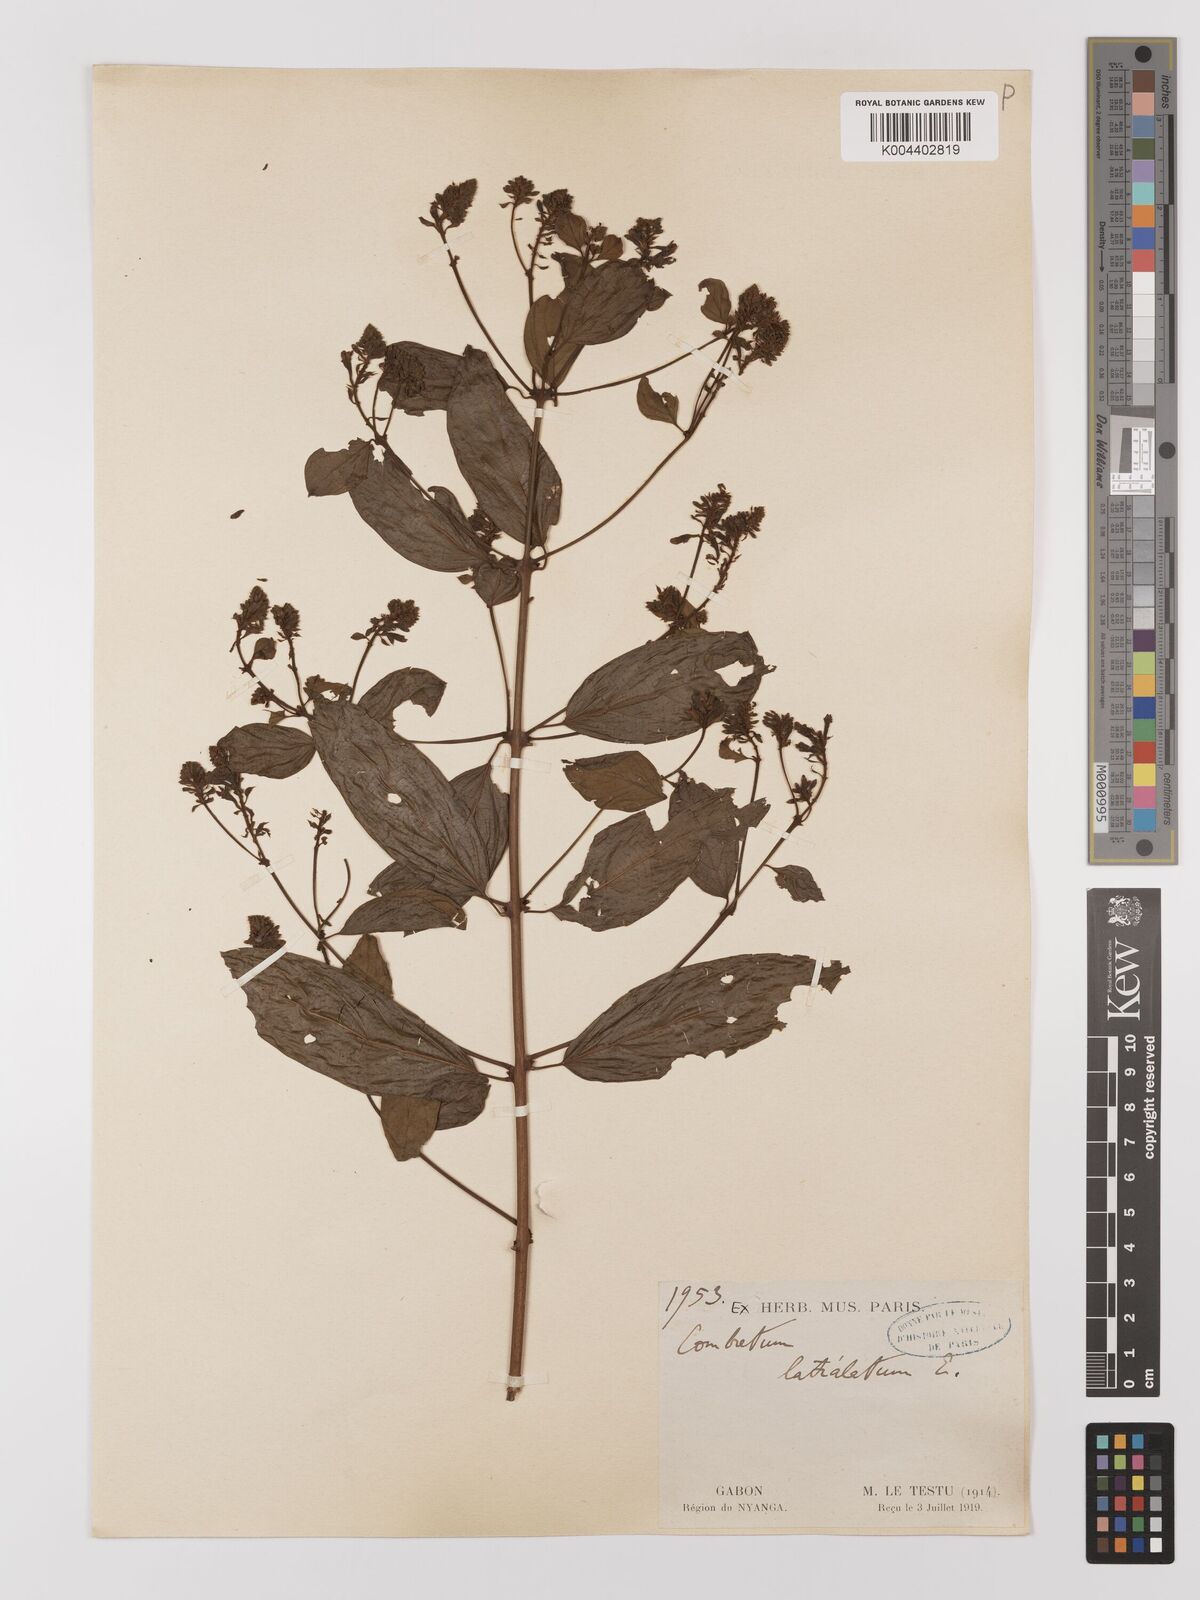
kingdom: Plantae
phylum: Tracheophyta
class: Magnoliopsida
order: Myrtales
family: Combretaceae
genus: Combretum
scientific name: Combretum latialatum
